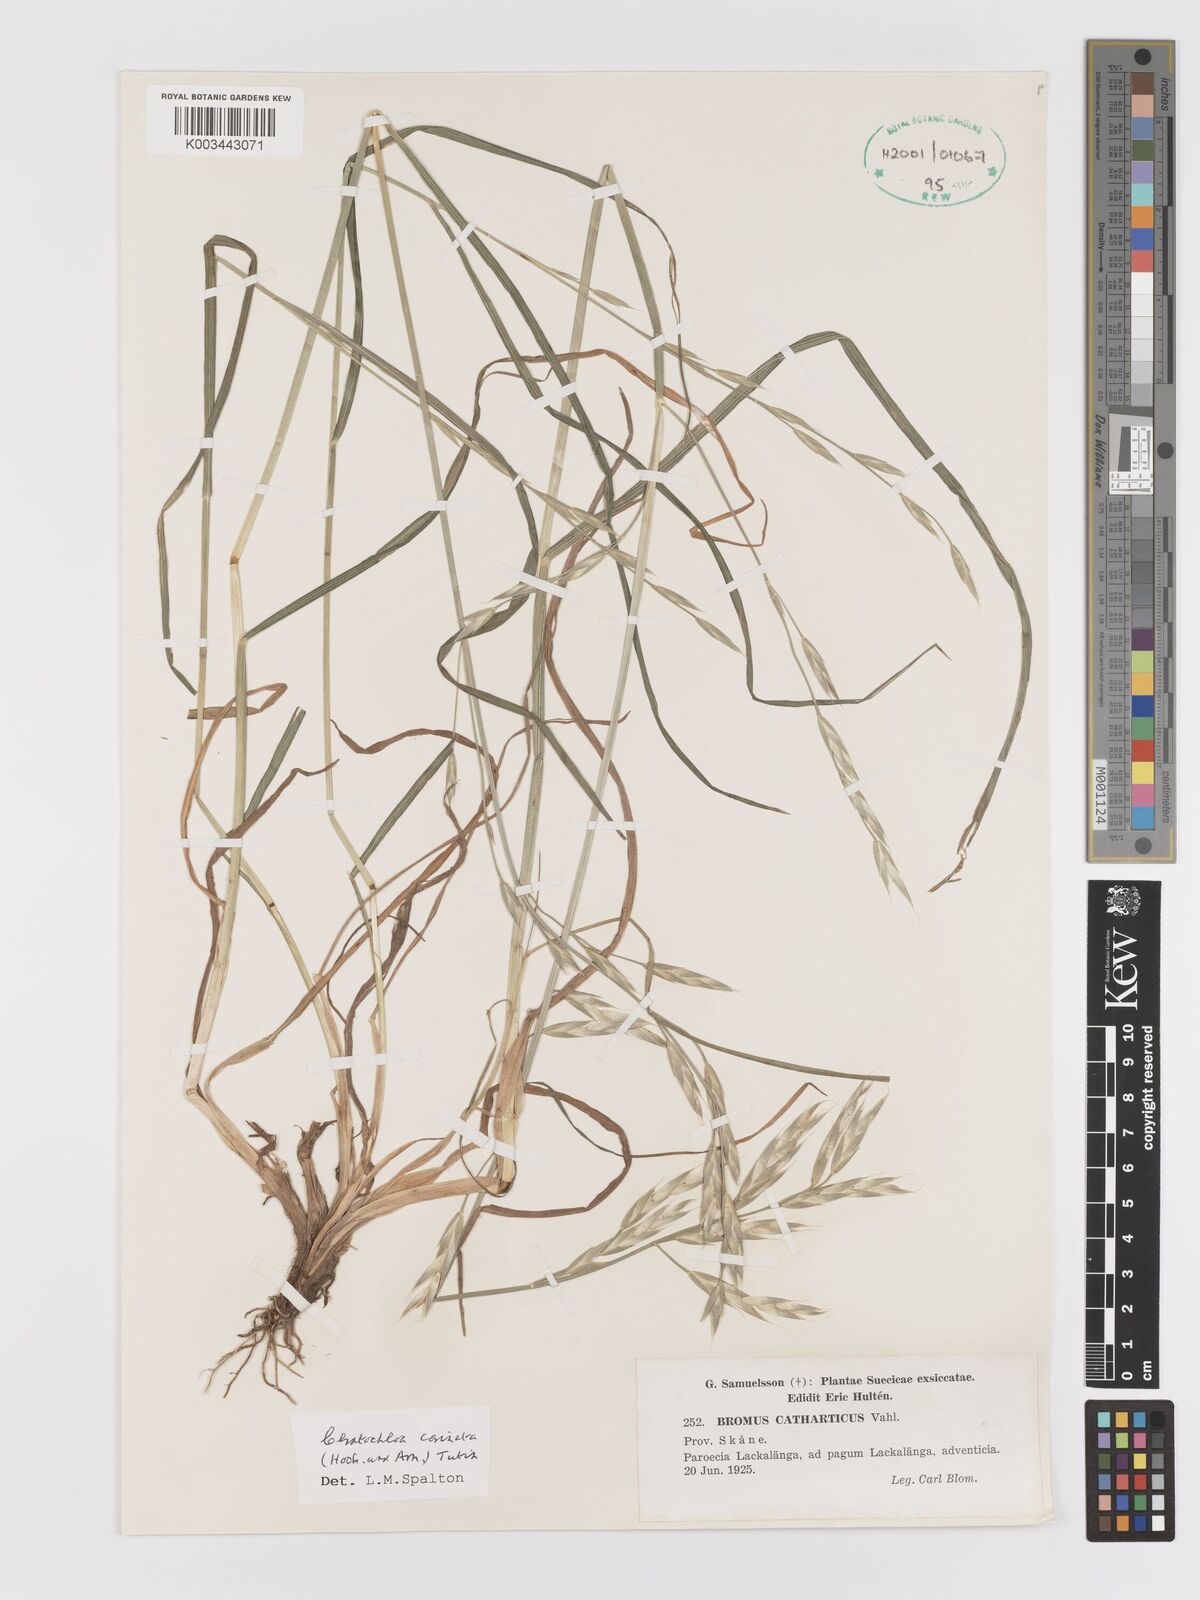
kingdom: Plantae
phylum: Tracheophyta
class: Liliopsida
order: Poales
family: Poaceae
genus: Bromus
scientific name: Bromus catharticus
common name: Rescuegrass
